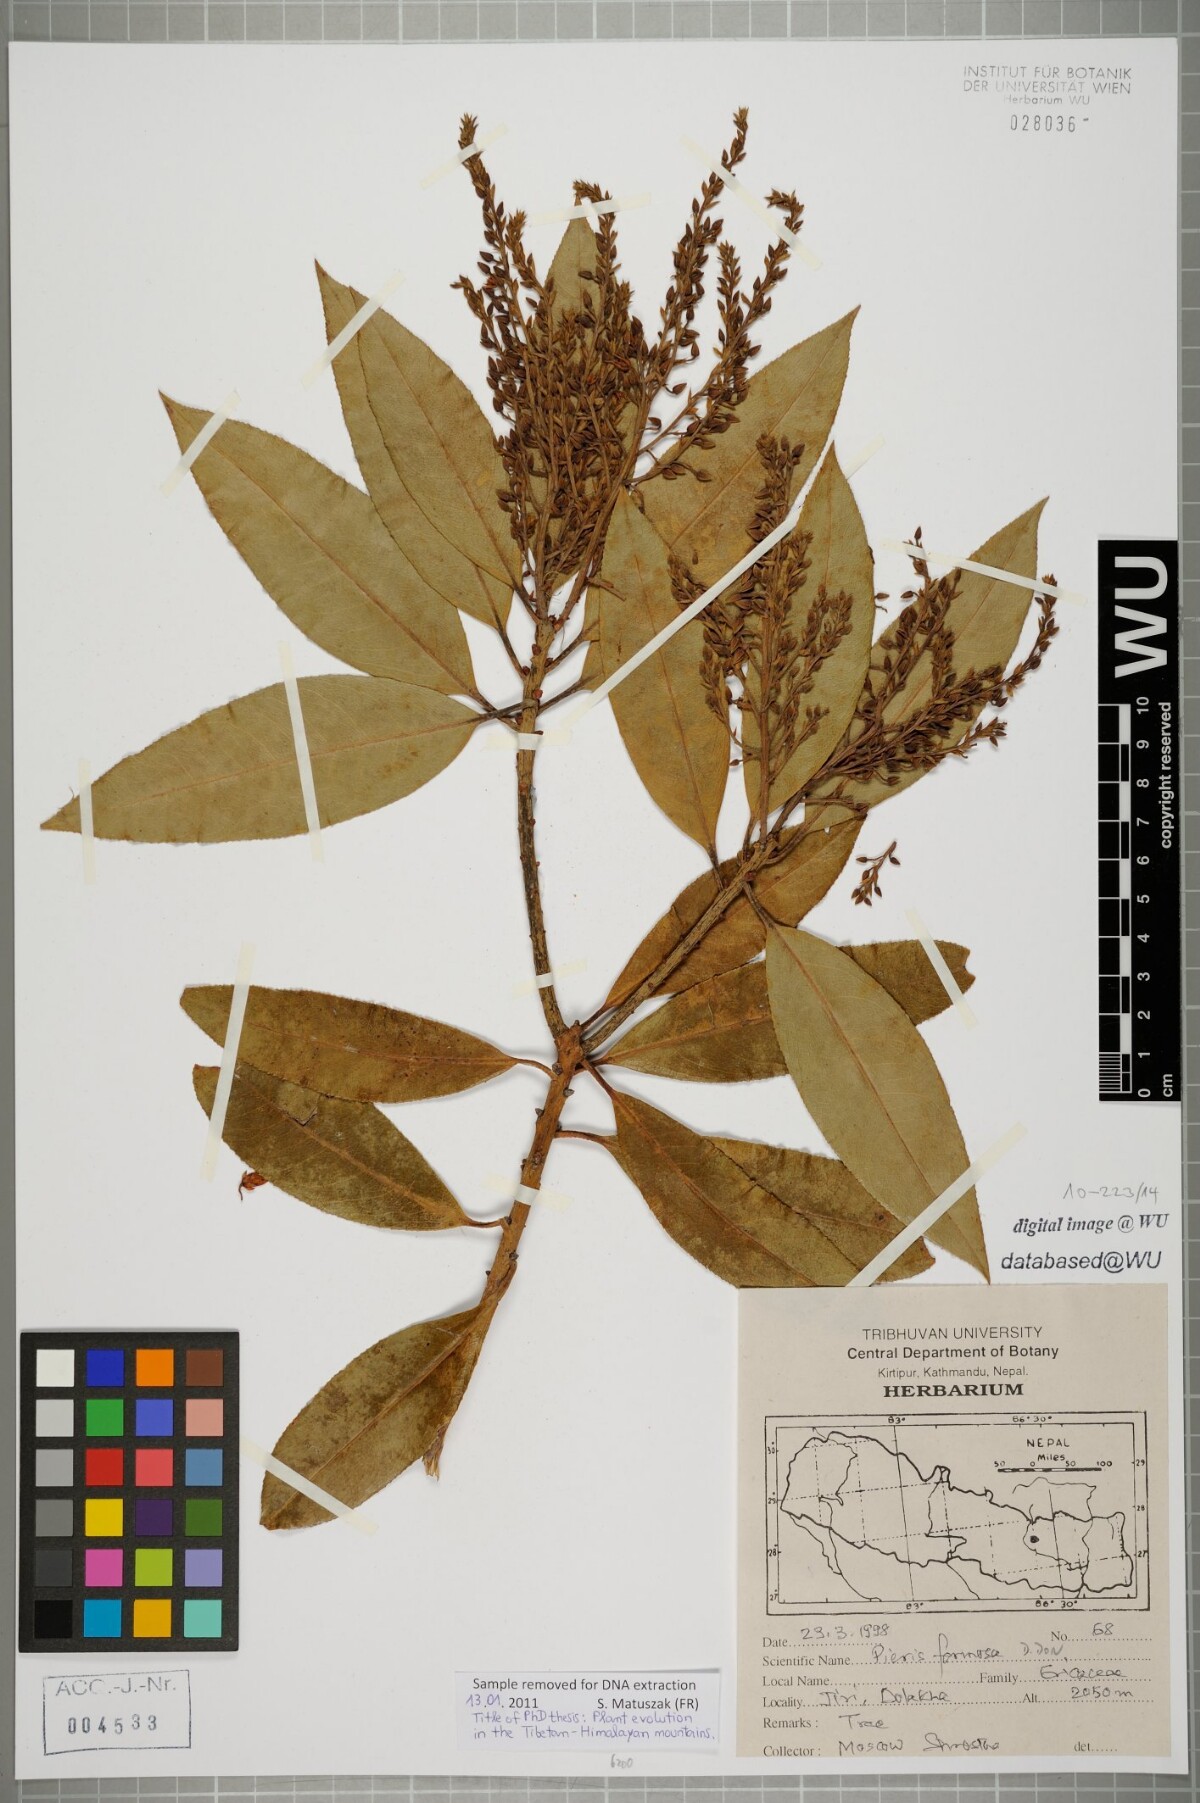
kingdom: Plantae
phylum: Tracheophyta
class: Magnoliopsida
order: Ericales
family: Ericaceae
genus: Pieris
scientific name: Pieris formosa
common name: Formosan pieris
